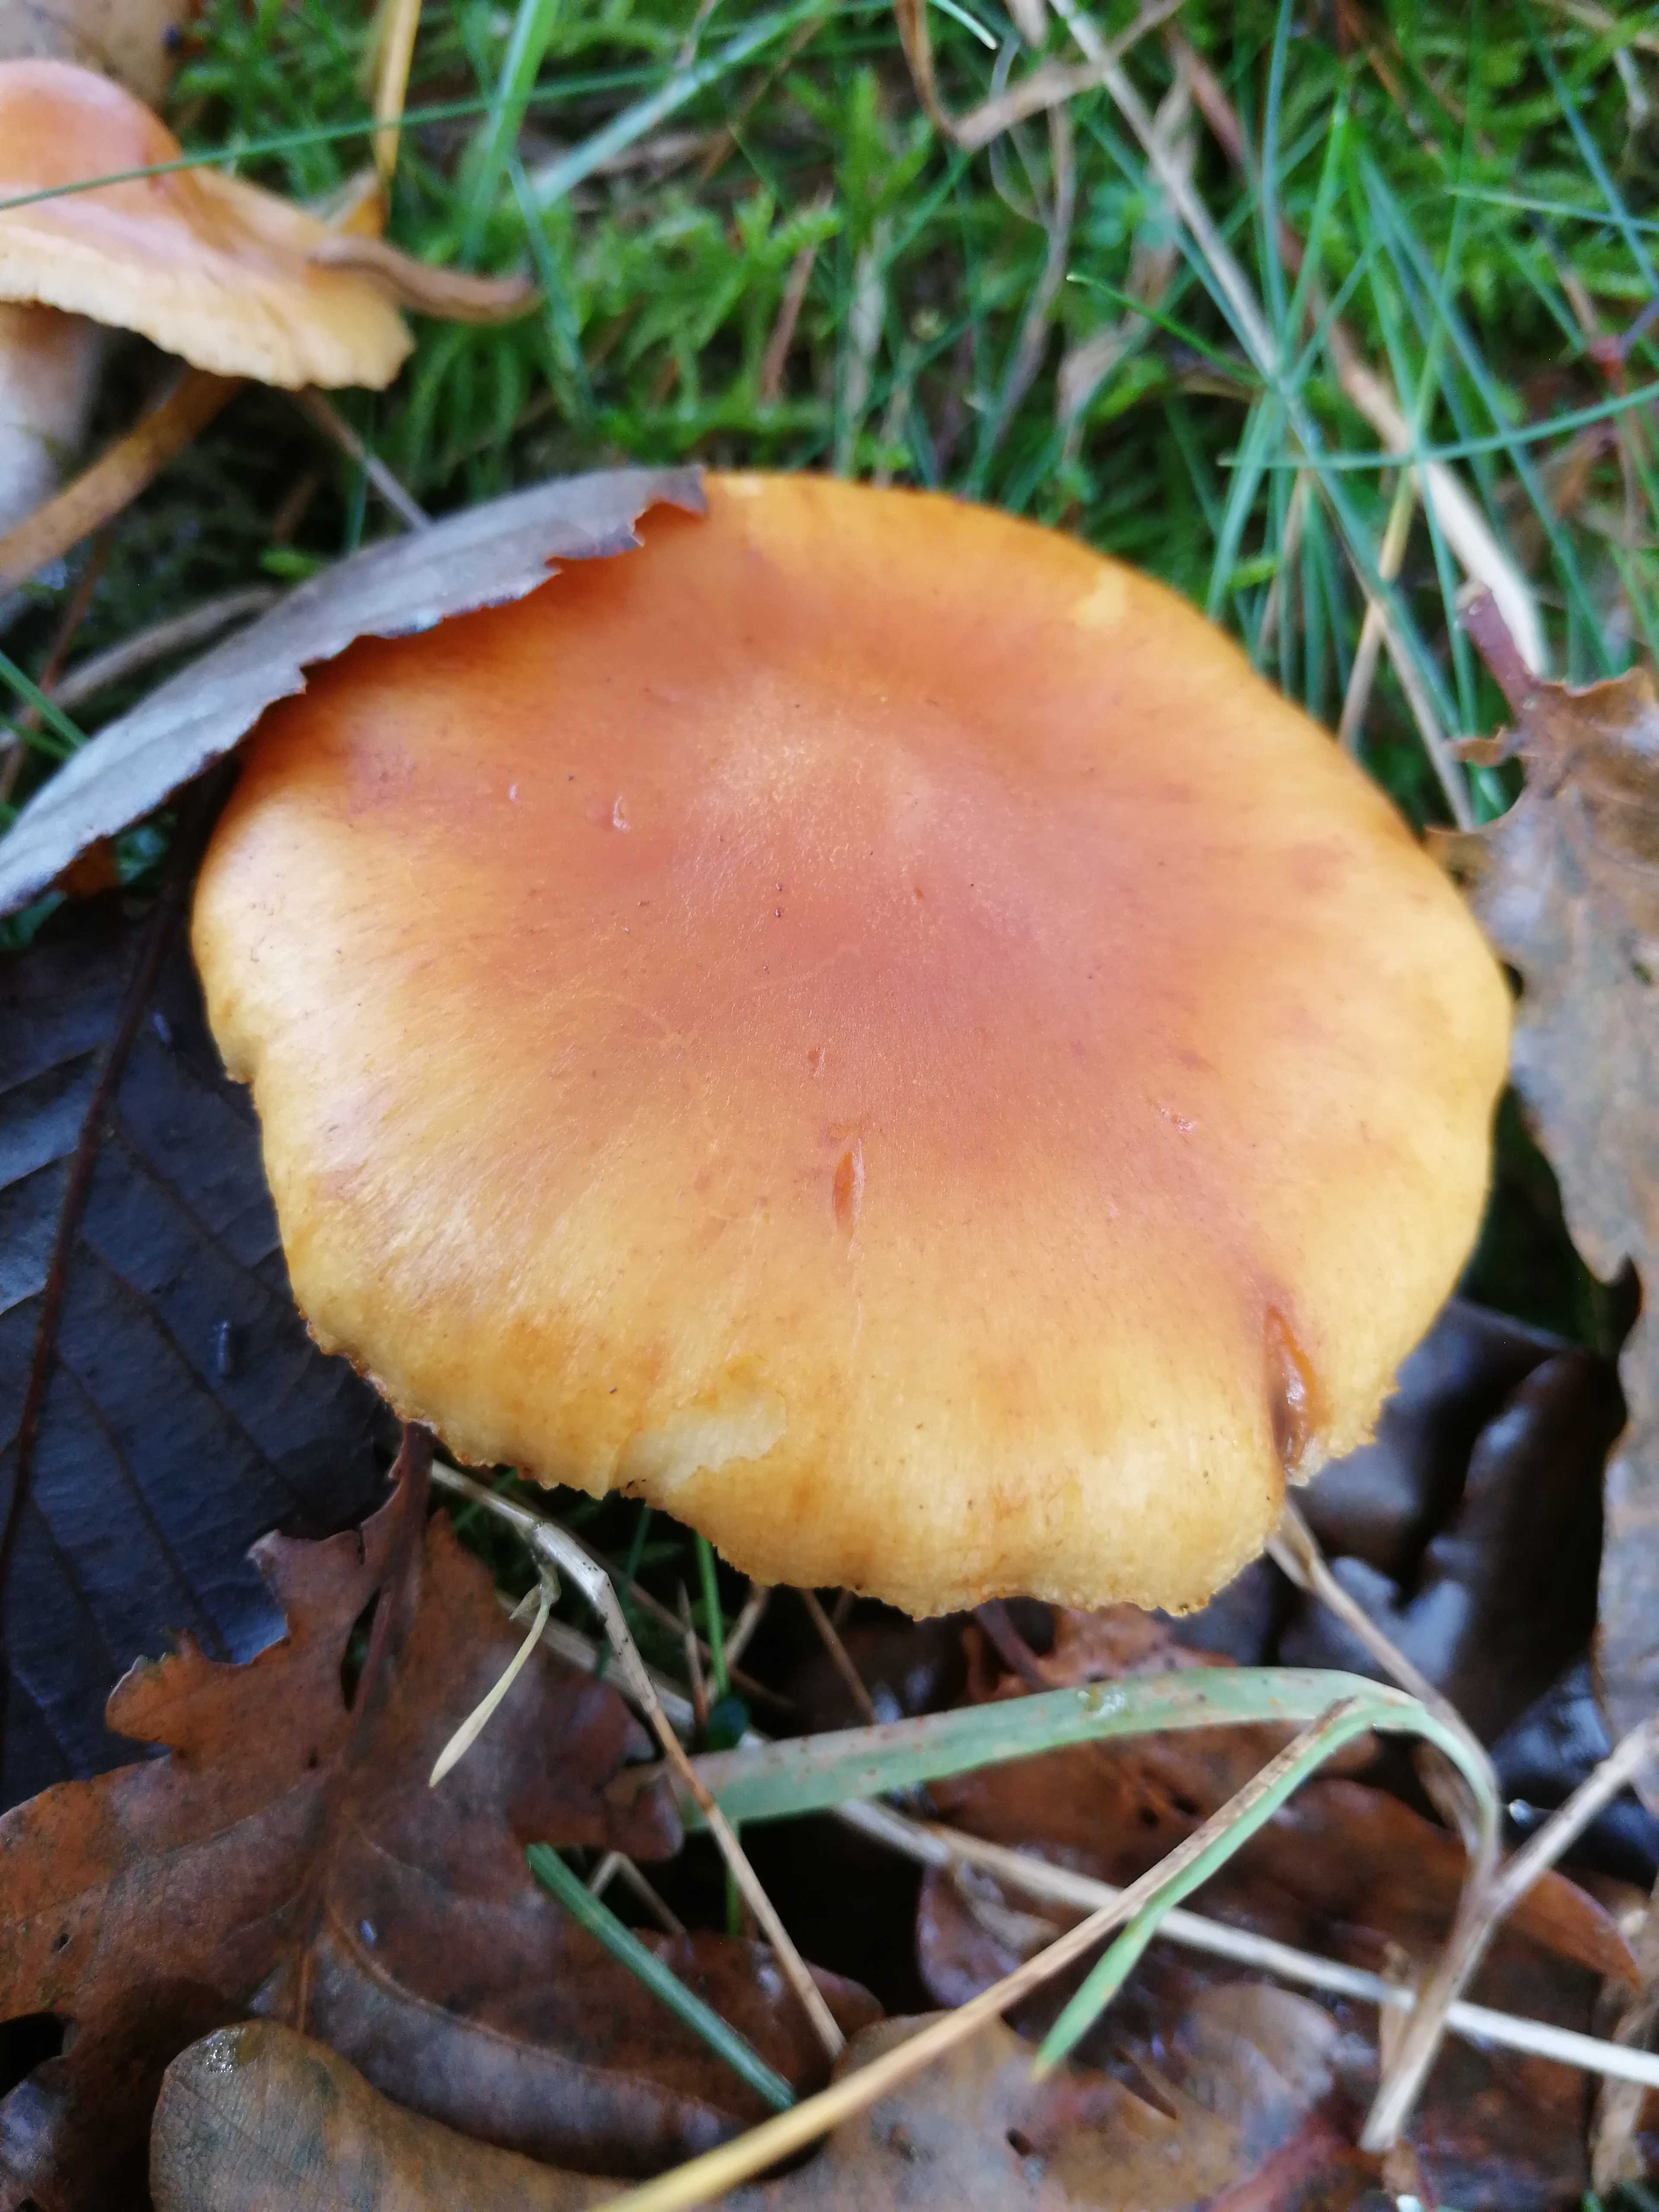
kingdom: Fungi
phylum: Basidiomycota
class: Agaricomycetes
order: Agaricales
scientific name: Agaricales
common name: champignonordenen
